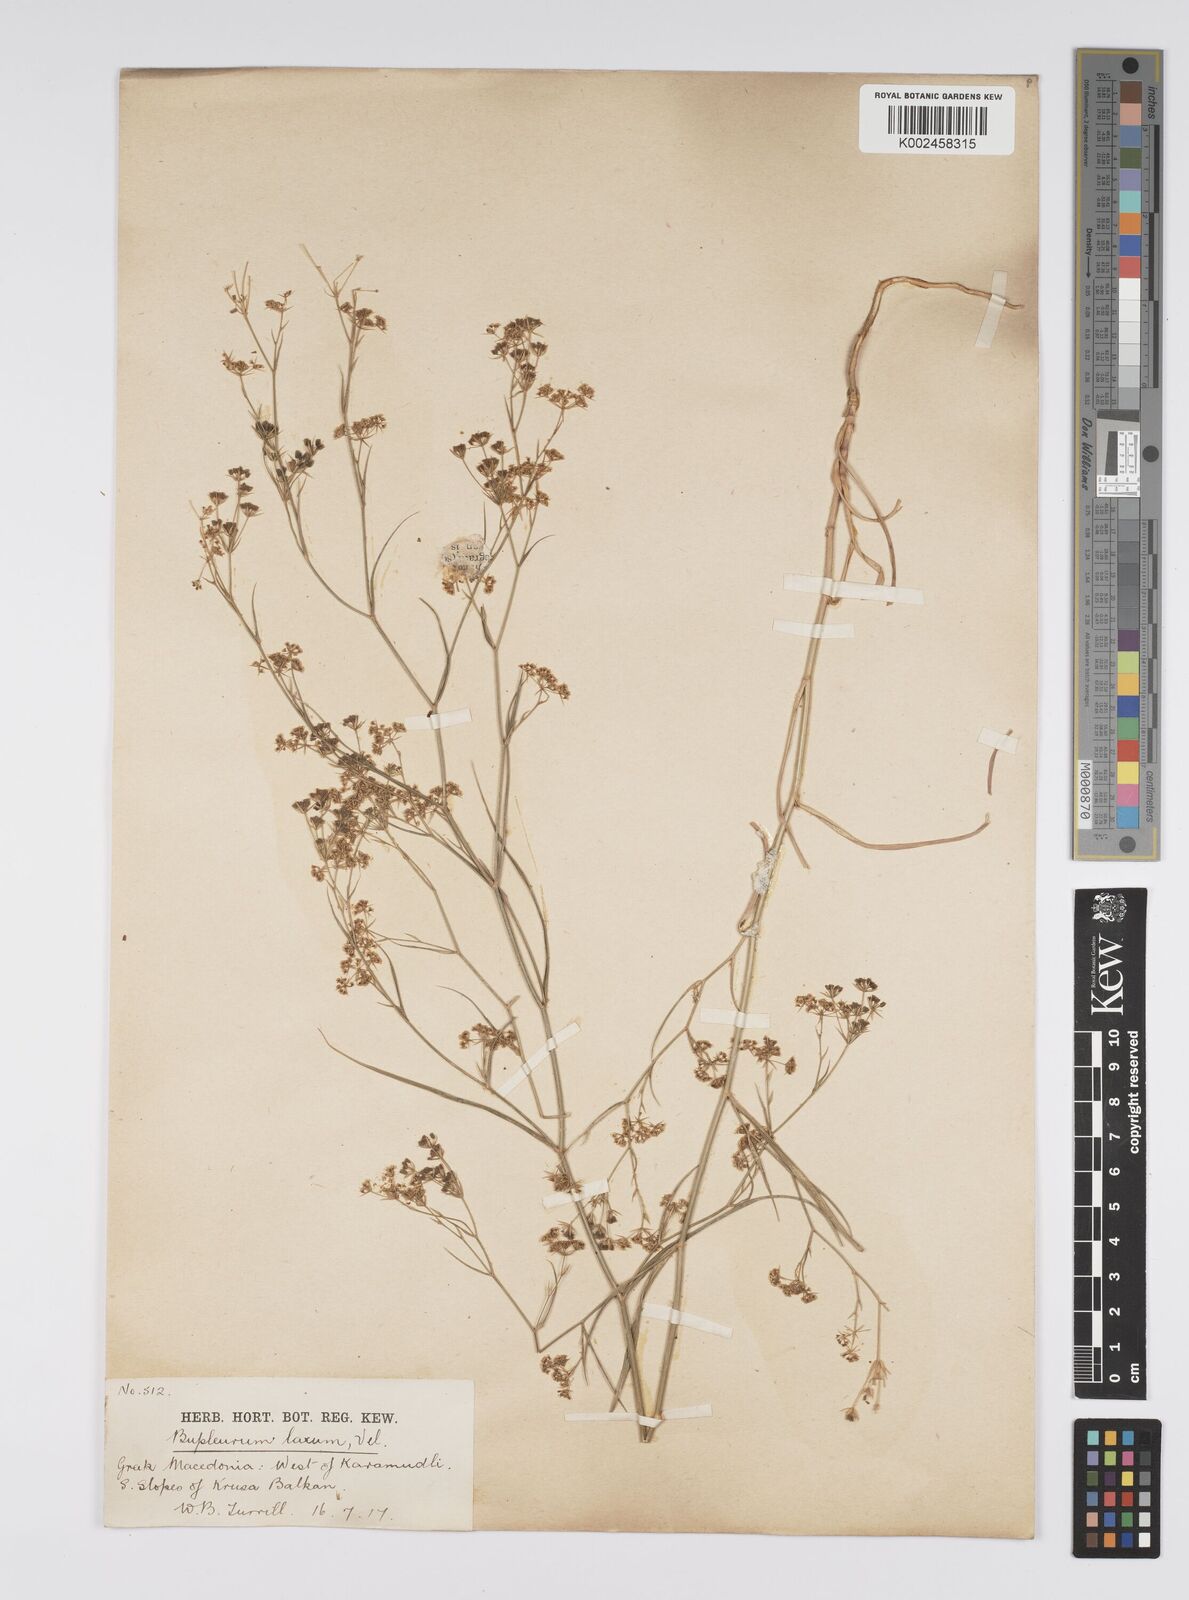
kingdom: Plantae
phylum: Tracheophyta
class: Magnoliopsida
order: Apiales
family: Apiaceae
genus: Bupleurum
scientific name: Bupleurum commutatum
